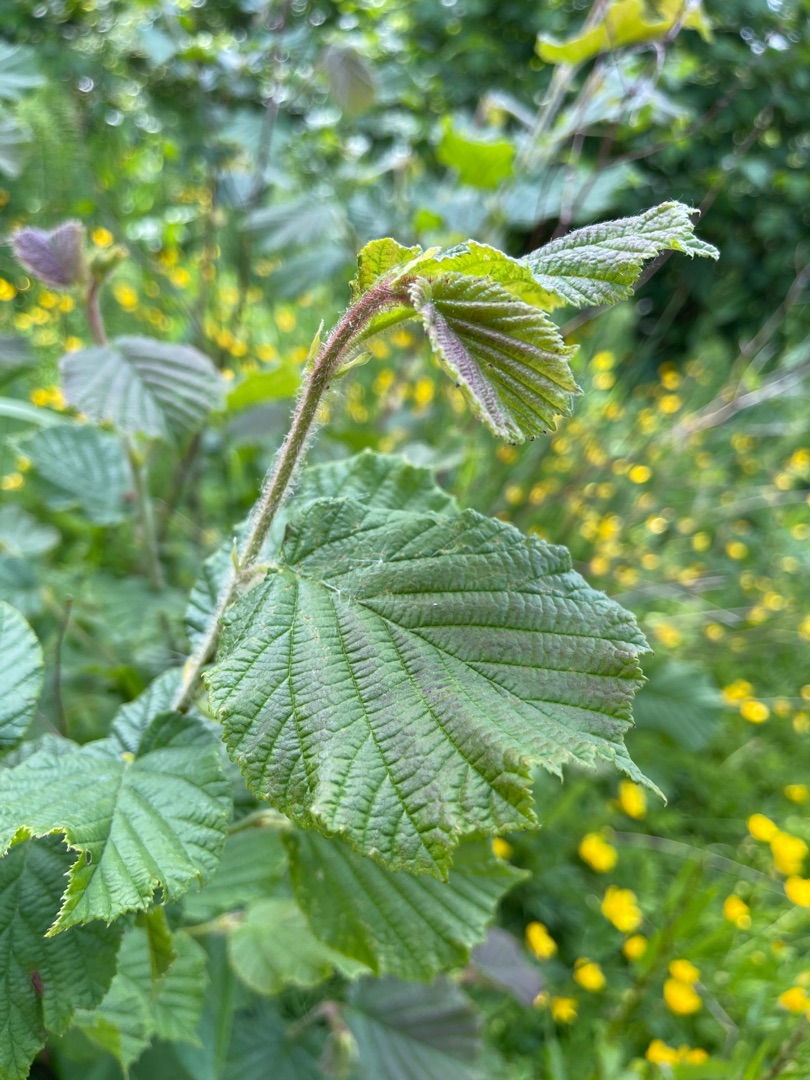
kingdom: Plantae
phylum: Tracheophyta
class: Magnoliopsida
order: Fagales
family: Betulaceae
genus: Corylus
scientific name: Corylus avellana
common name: Hassel
